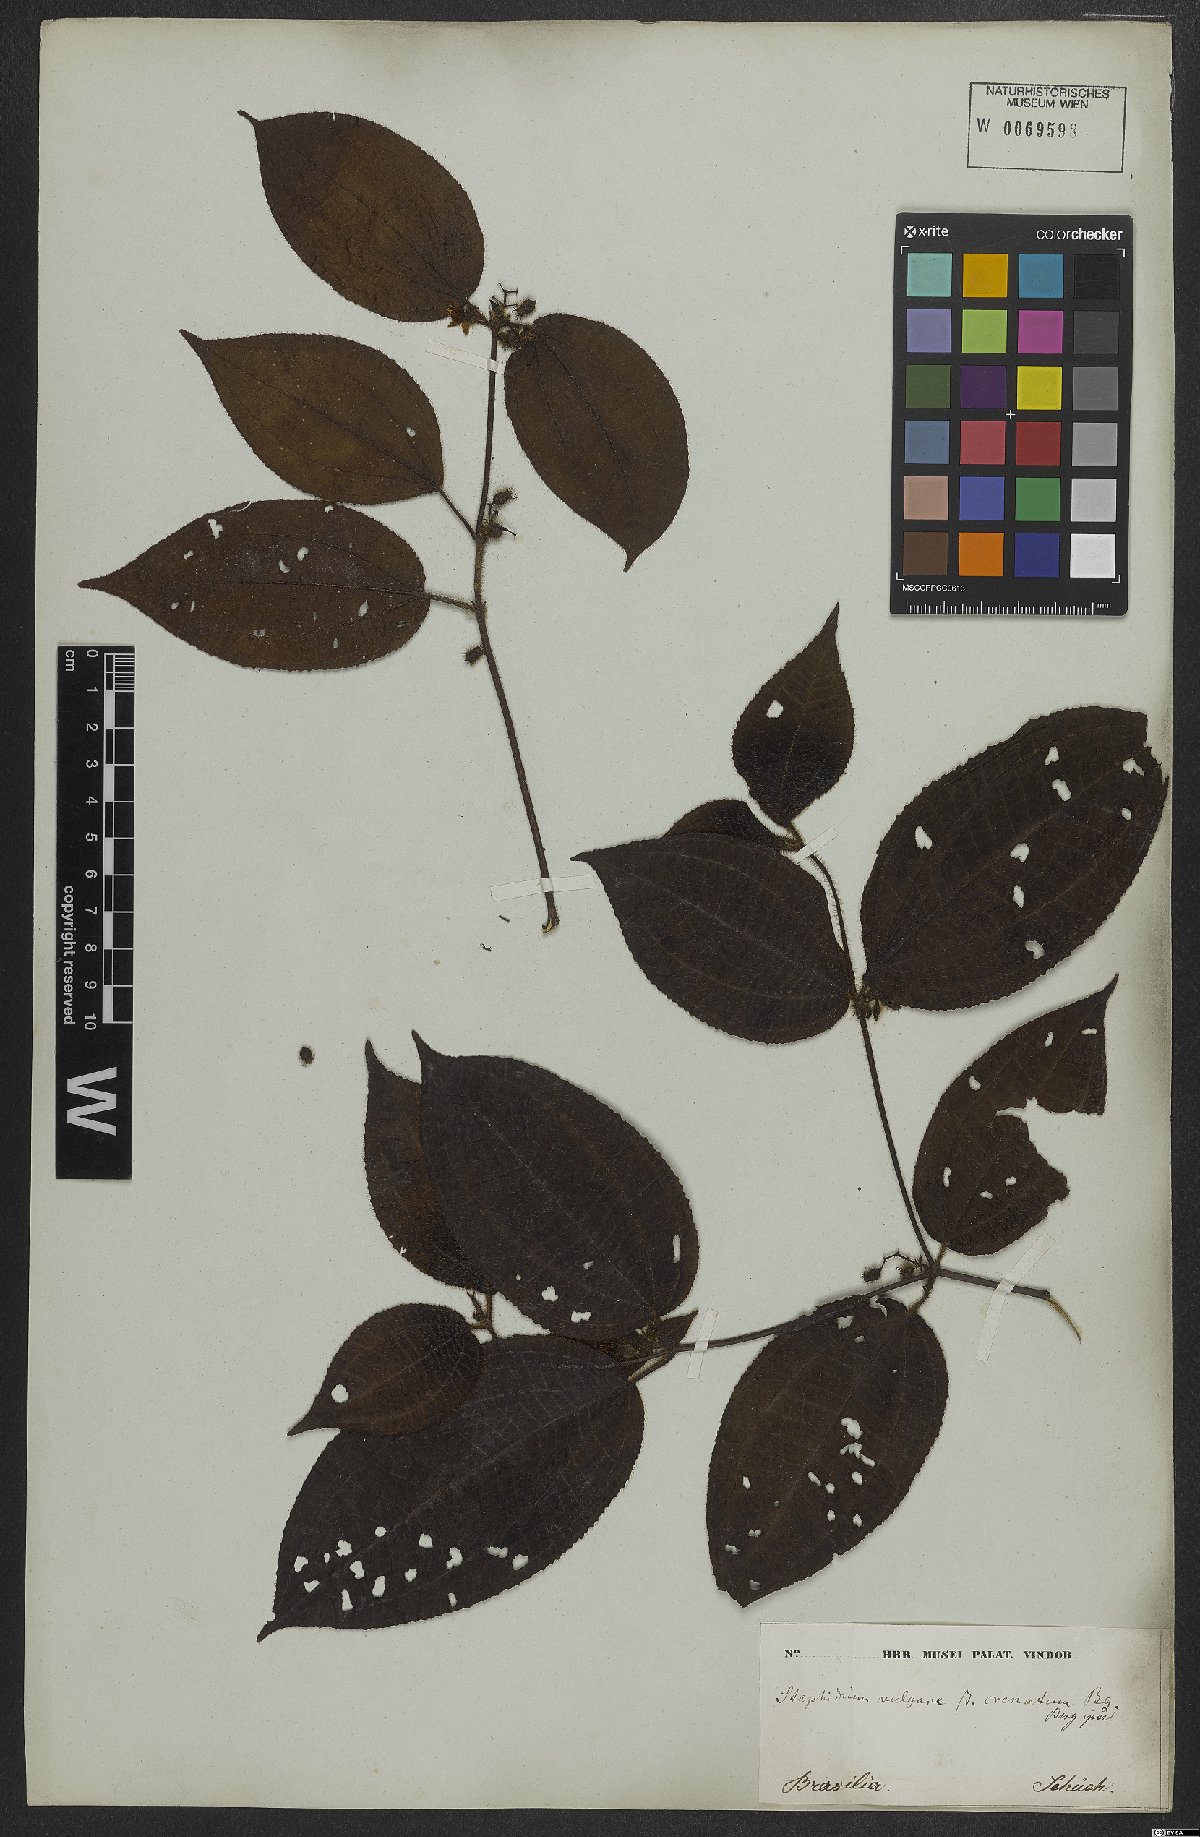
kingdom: Plantae
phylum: Tracheophyta
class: Magnoliopsida
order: Myrtales
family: Melastomataceae
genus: Miconia
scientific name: Miconia crenata
